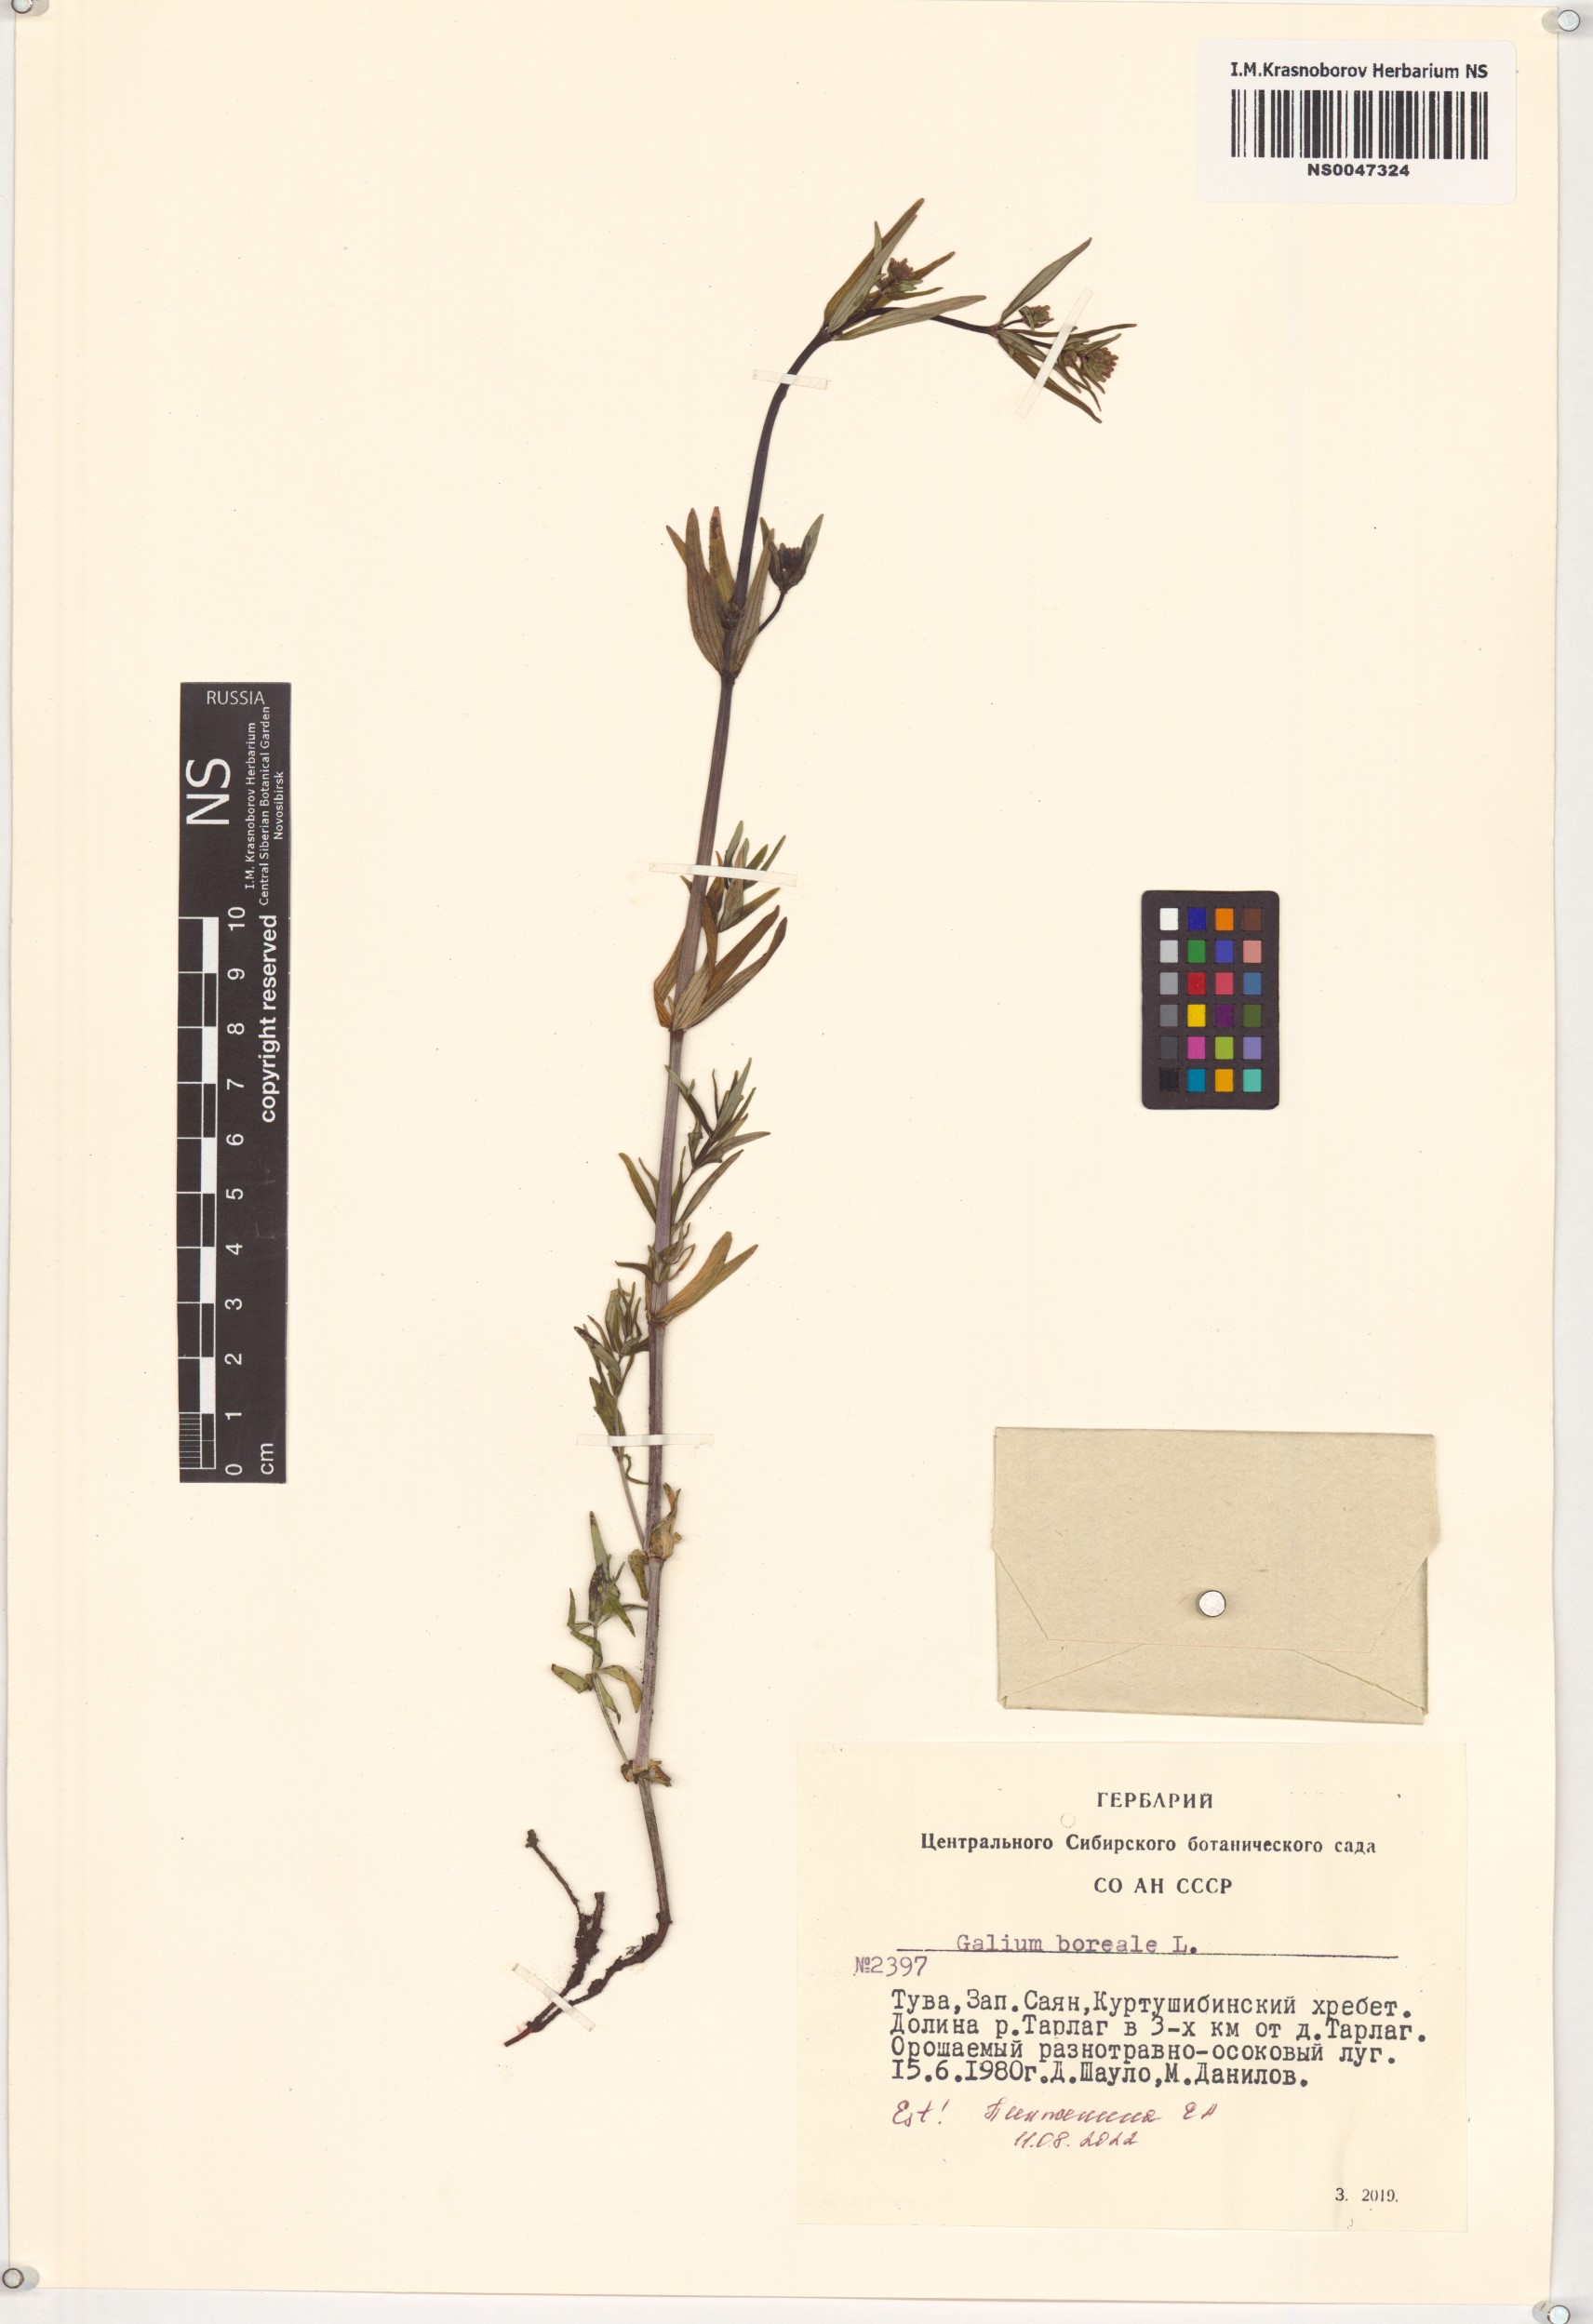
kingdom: Plantae
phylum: Tracheophyta
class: Magnoliopsida
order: Gentianales
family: Rubiaceae
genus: Galium
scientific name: Galium boreale
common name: Northern bedstraw
